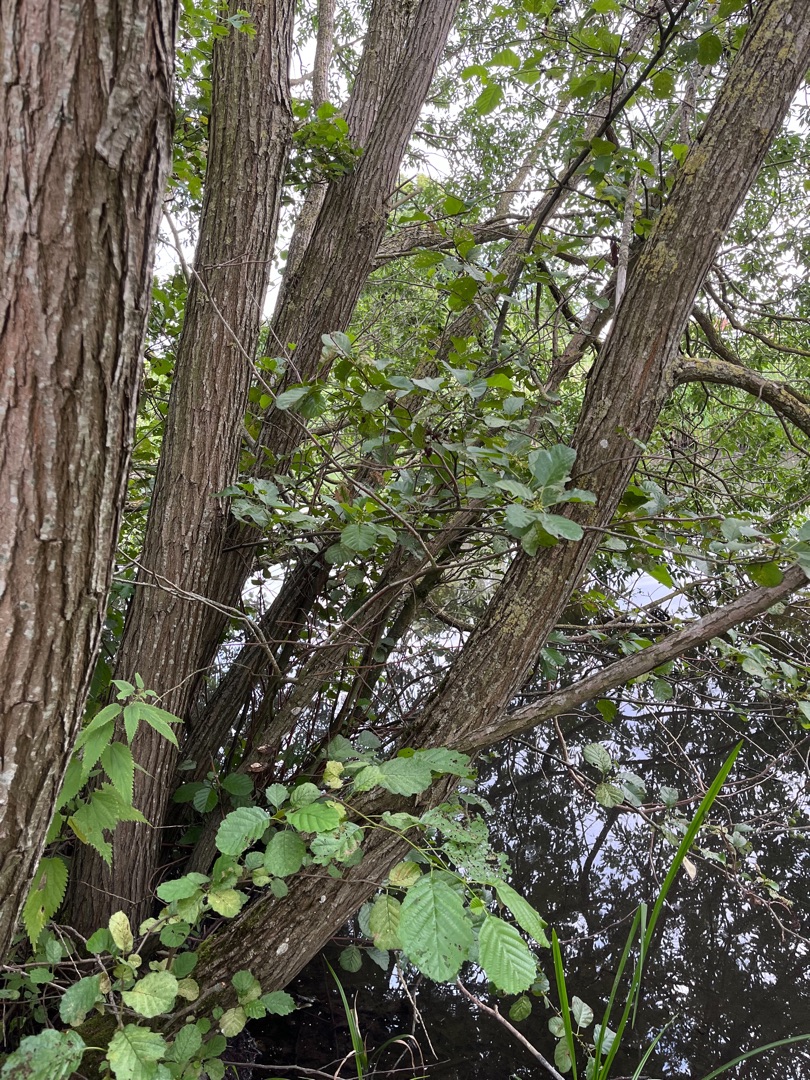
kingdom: Plantae
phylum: Tracheophyta
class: Magnoliopsida
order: Fagales
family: Betulaceae
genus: Alnus
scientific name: Alnus glutinosa
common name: Rød-el
